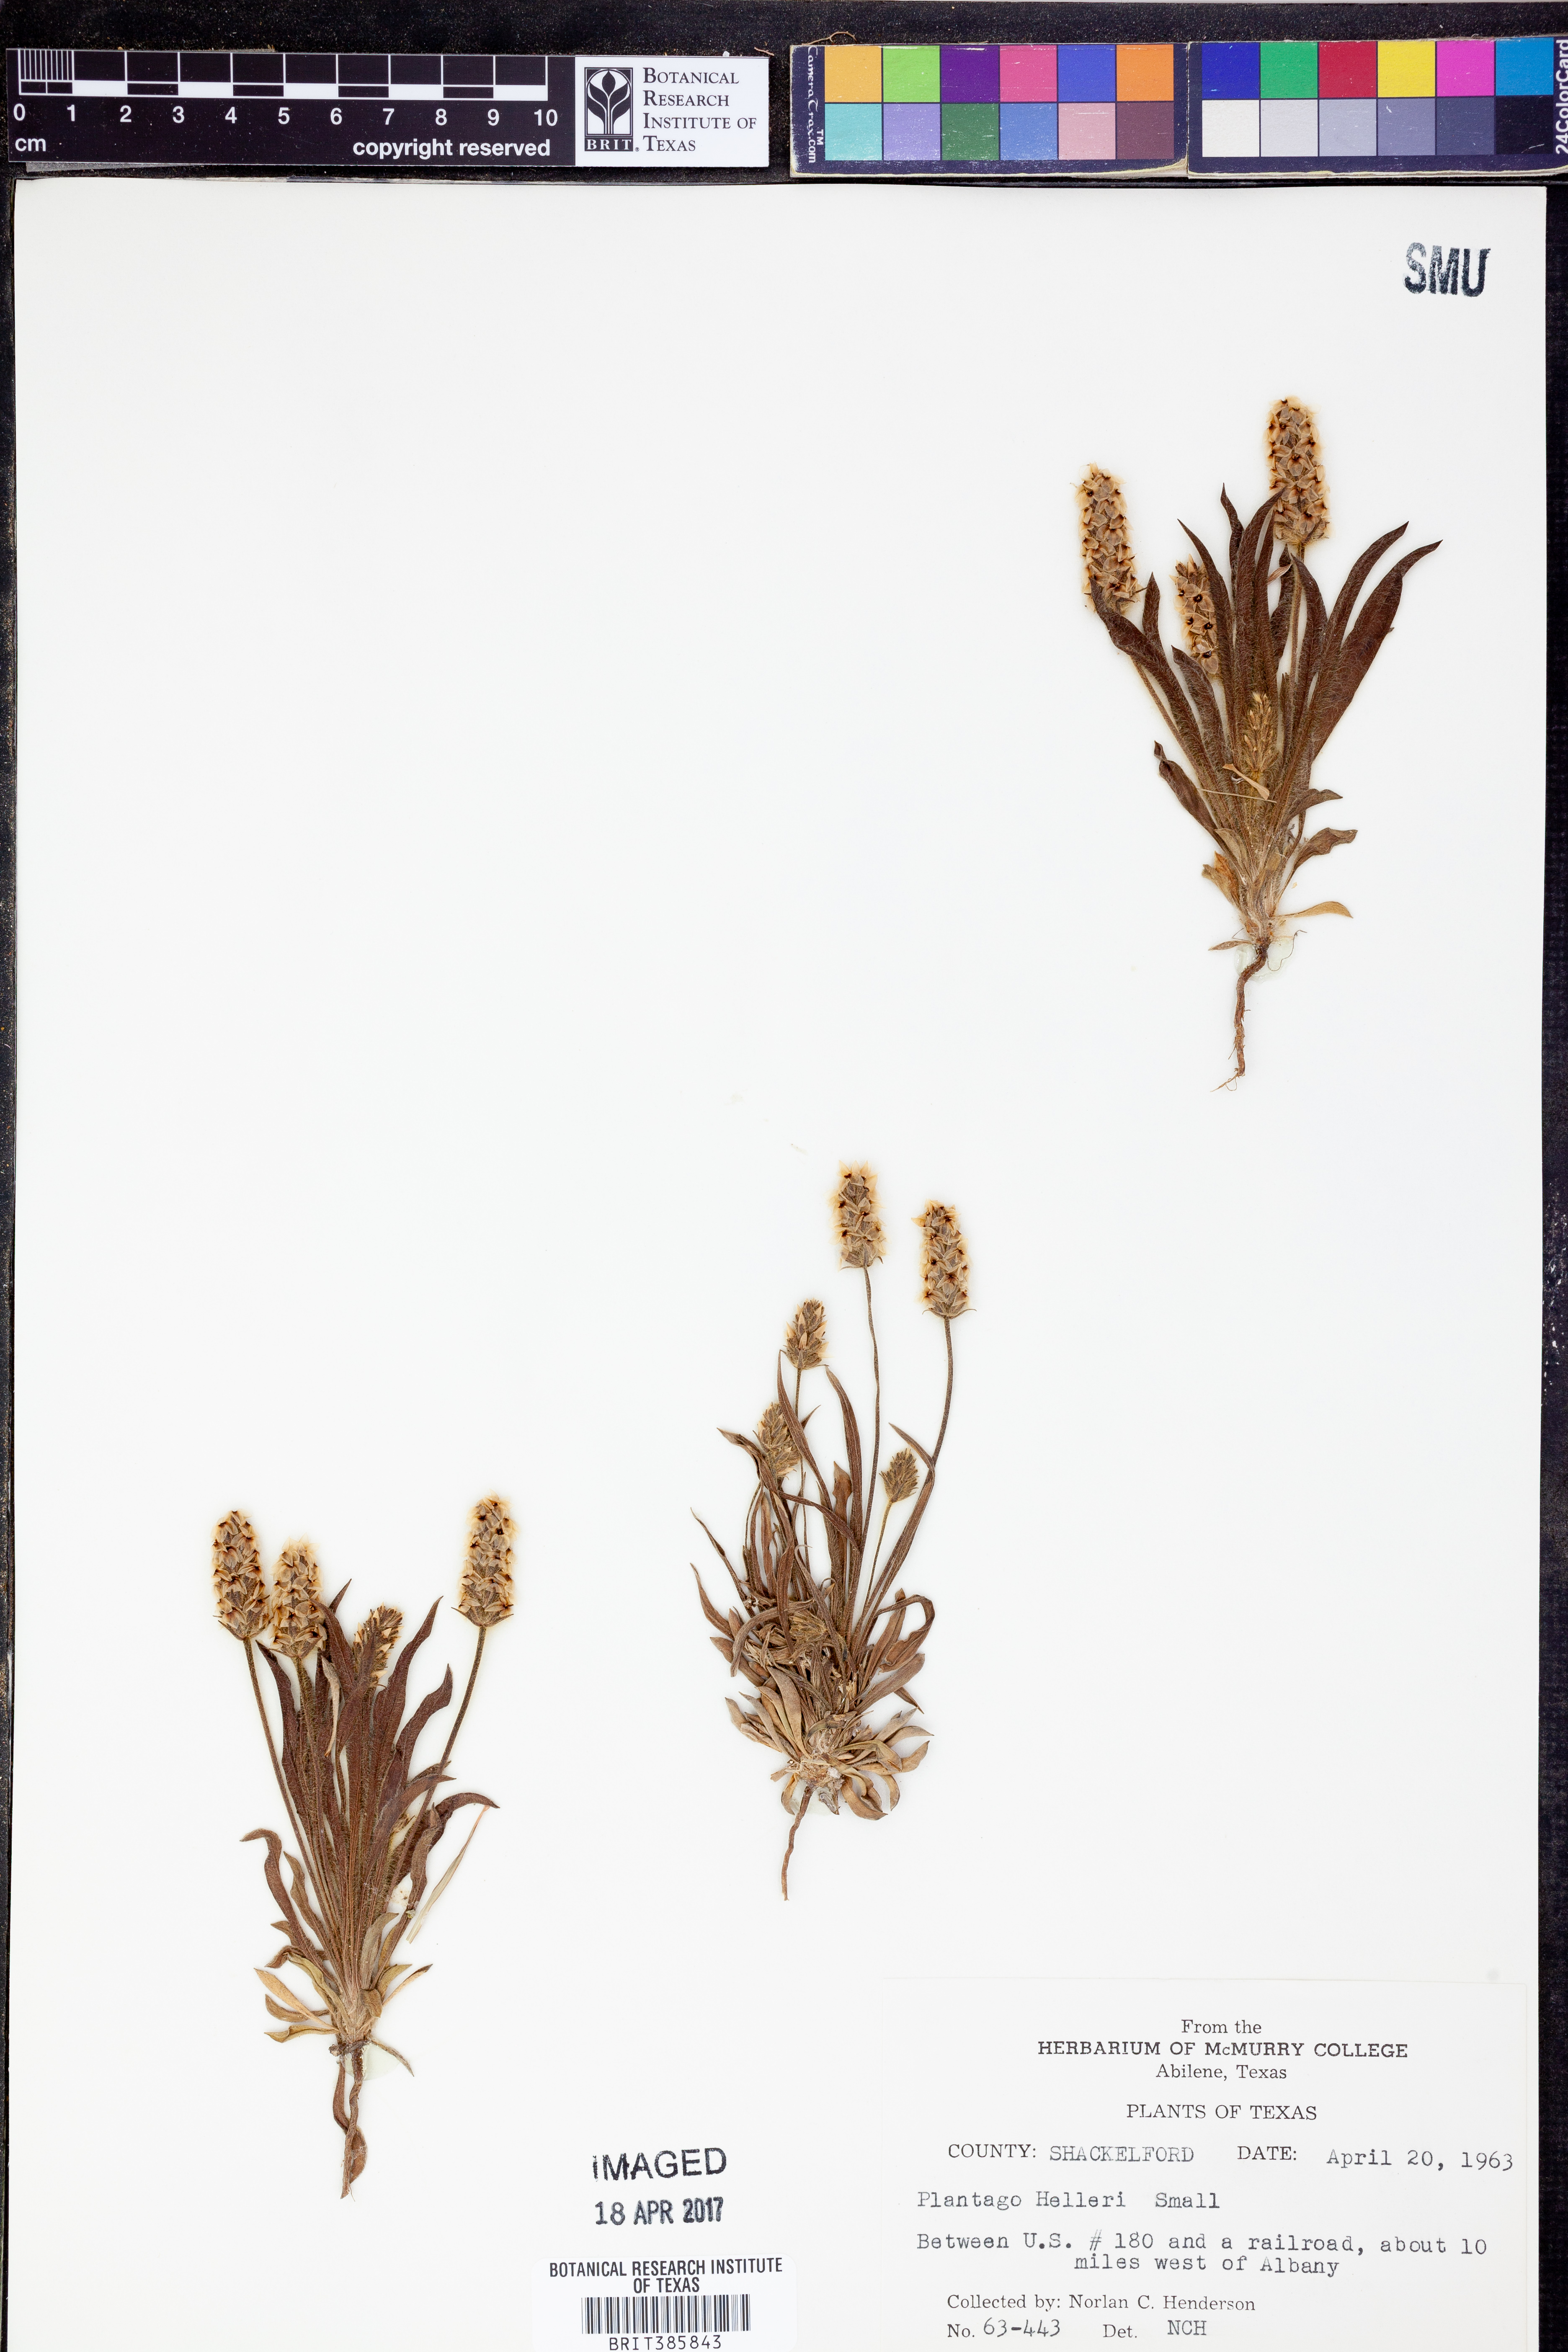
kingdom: Plantae
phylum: Tracheophyta
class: Magnoliopsida
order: Lamiales
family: Plantaginaceae
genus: Plantago
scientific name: Plantago helleri
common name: Heller's plantain
